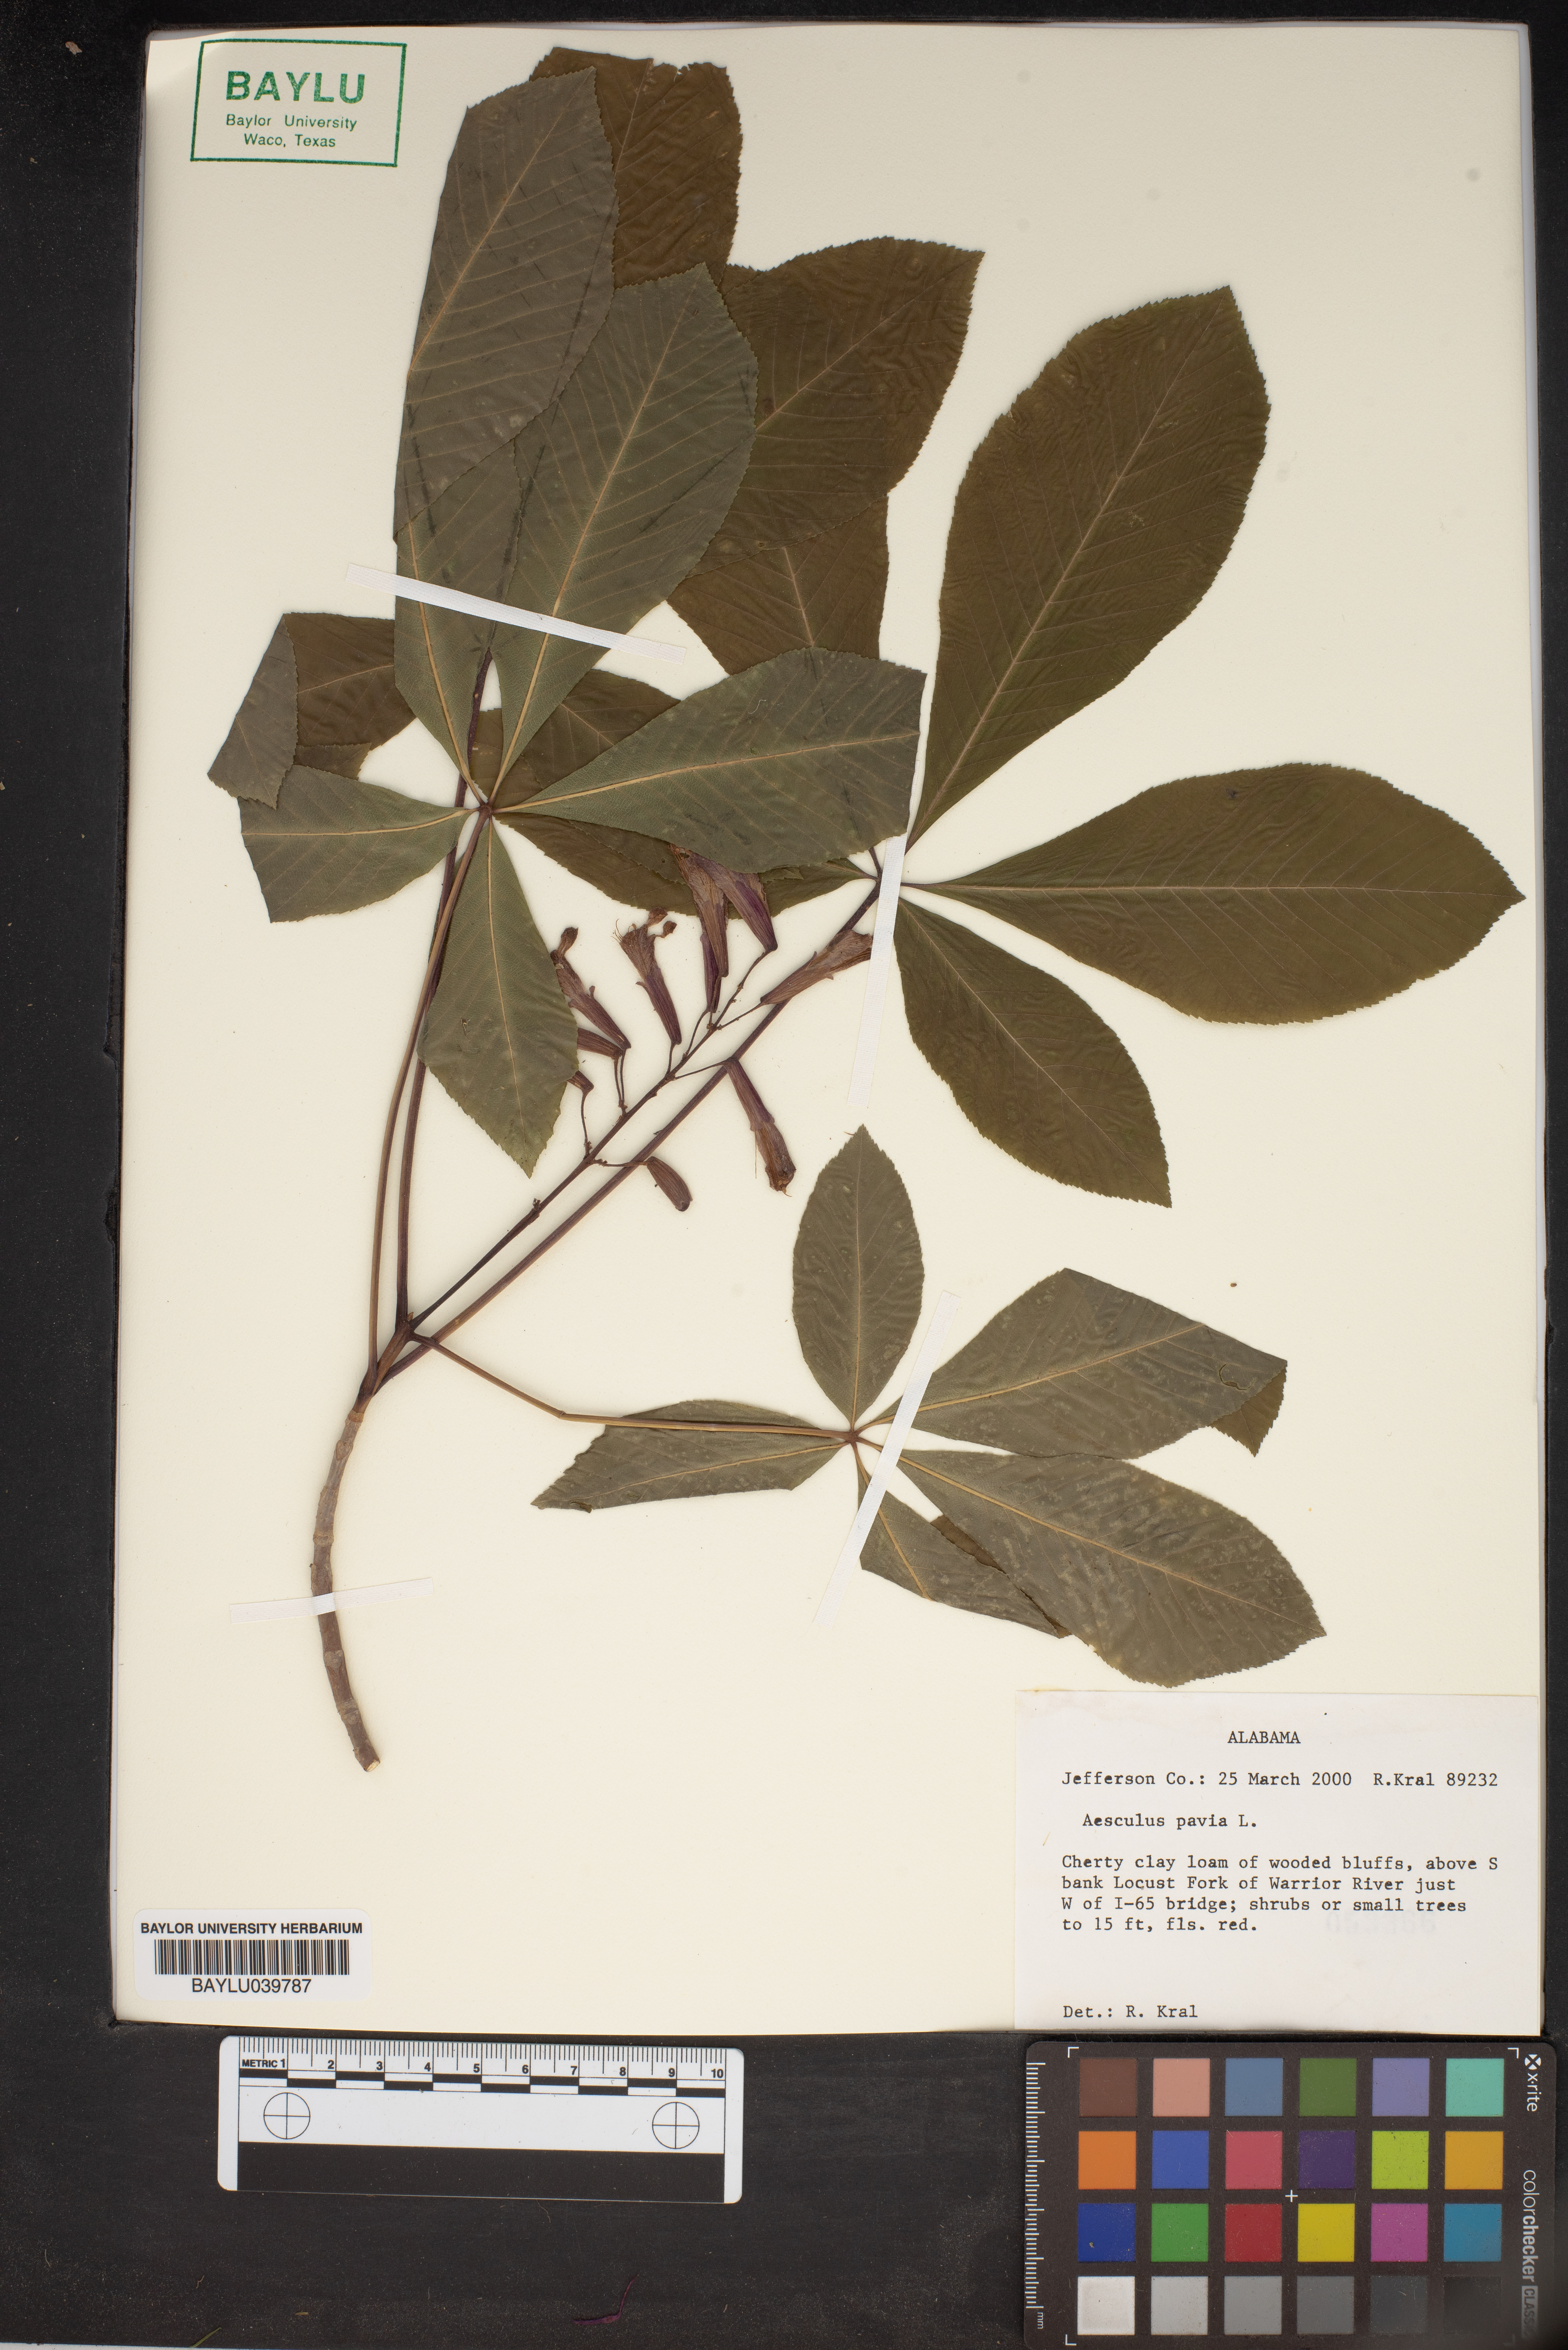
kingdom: Plantae
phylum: Tracheophyta
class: Magnoliopsida
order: Sapindales
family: Sapindaceae
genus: Aesculus
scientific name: Aesculus pavia
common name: Red buckeye
